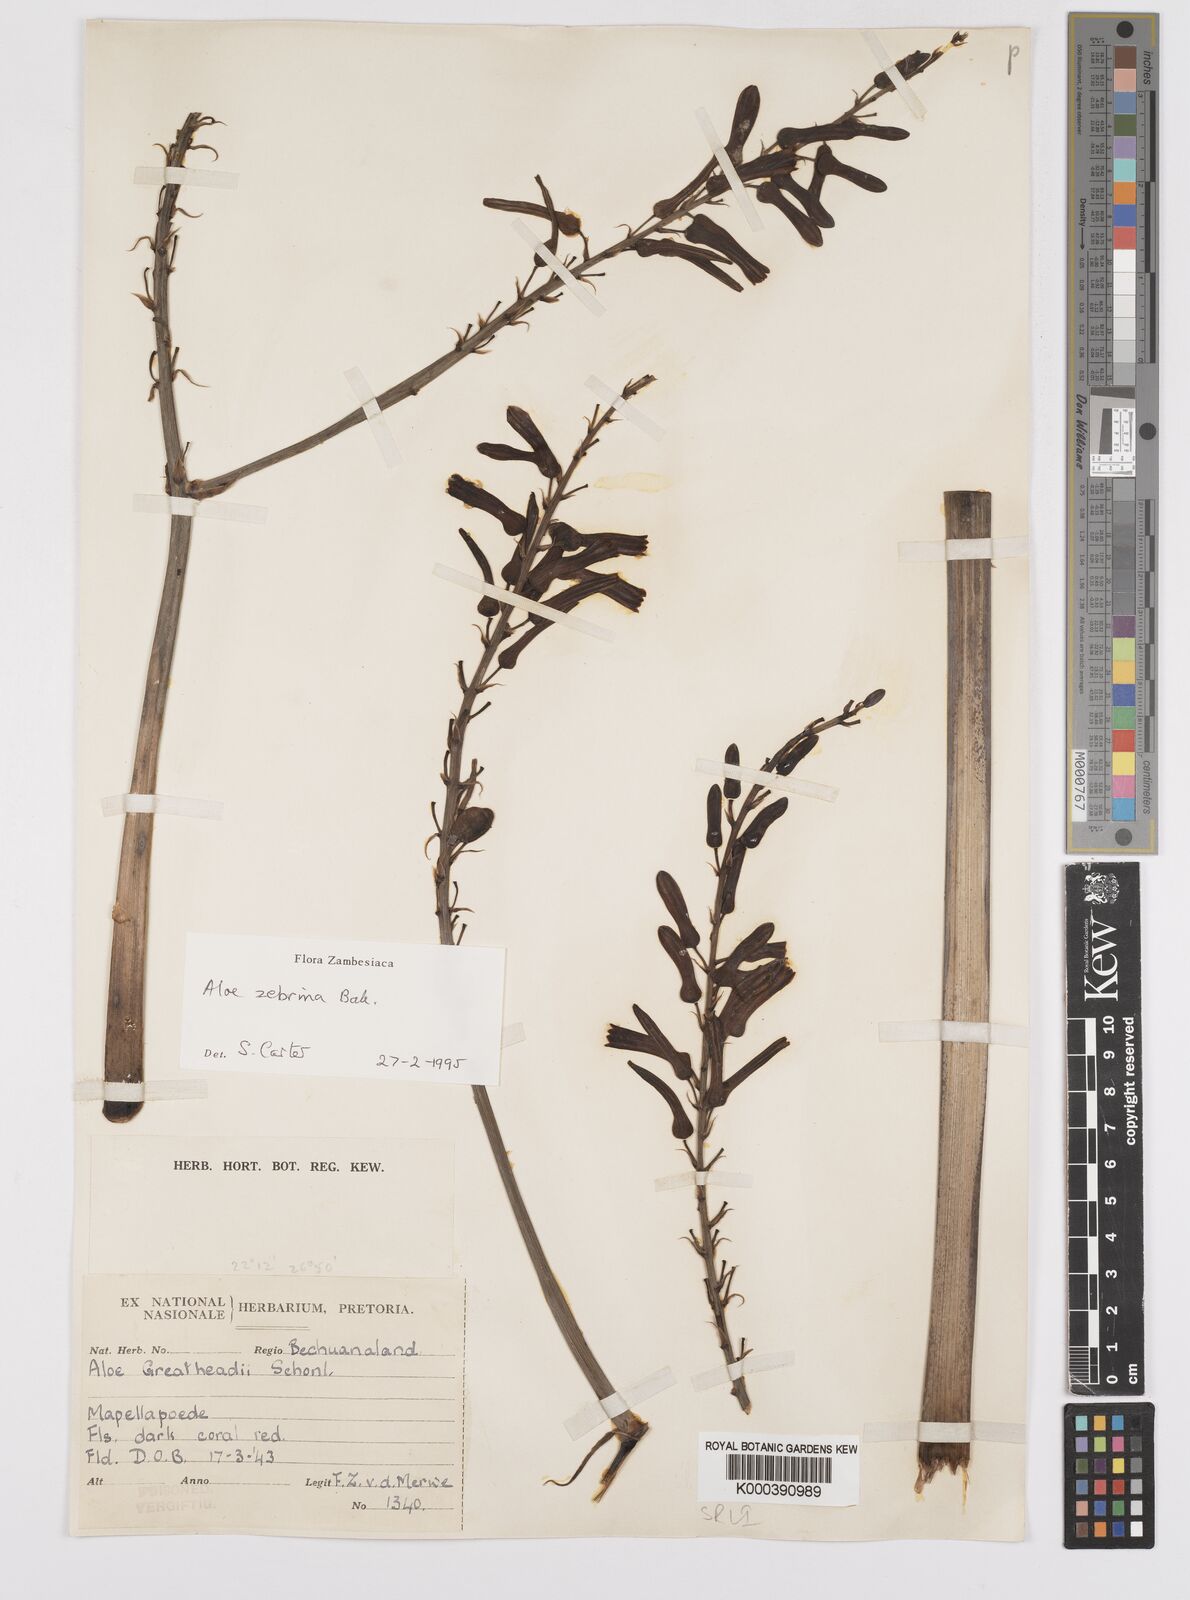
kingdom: Plantae
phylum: Tracheophyta
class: Liliopsida
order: Asparagales
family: Asphodelaceae
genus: Aloe
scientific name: Aloe zebrina
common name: Zebra-leaf aloe
